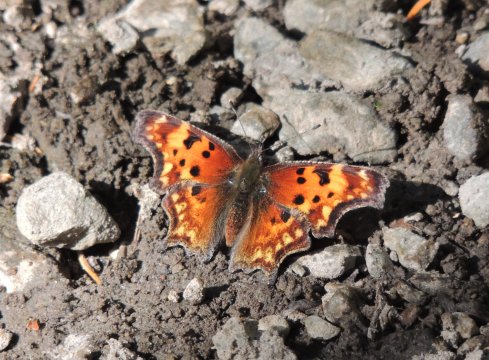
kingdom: Animalia
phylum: Arthropoda
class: Insecta
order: Lepidoptera
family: Nymphalidae
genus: Polygonia
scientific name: Polygonia gracilis
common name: Hoary Comma
